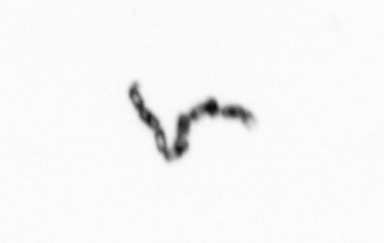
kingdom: Chromista
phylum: Ochrophyta
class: Bacillariophyceae
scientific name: Bacillariophyceae
